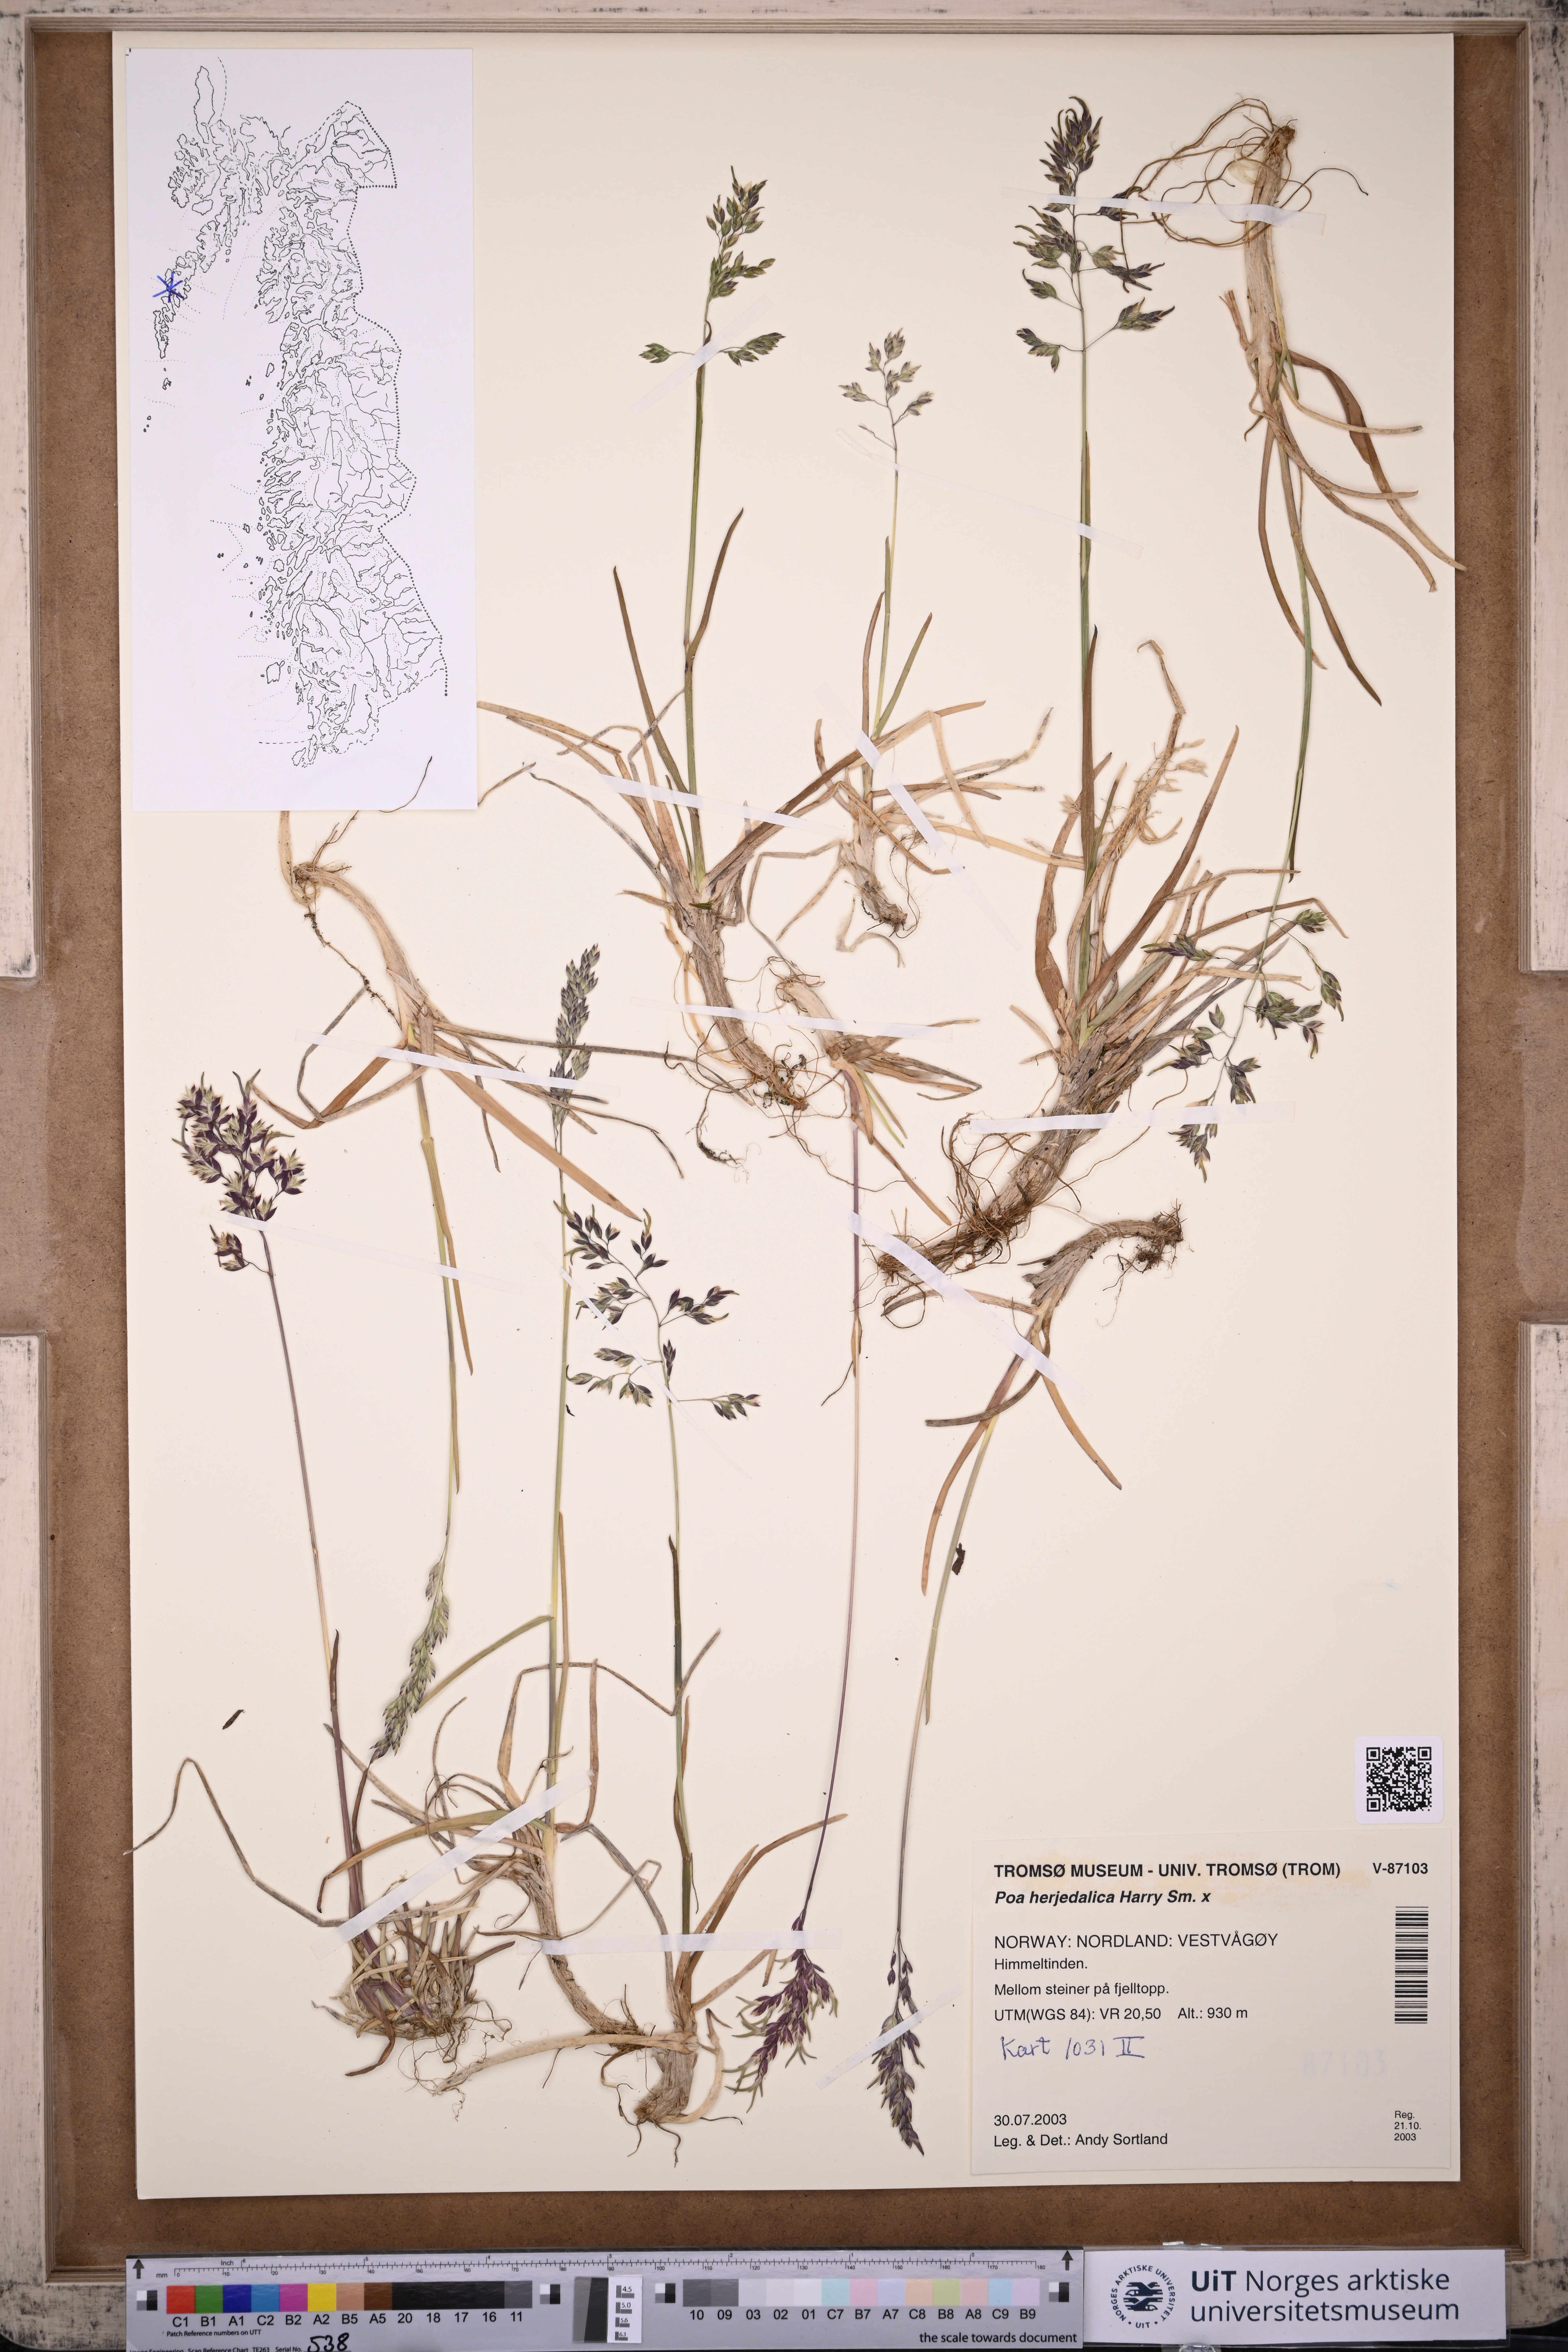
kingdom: Plantae
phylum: Tracheophyta
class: Liliopsida
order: Poales
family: Poaceae
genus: Poa
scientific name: Poa herjedalica
